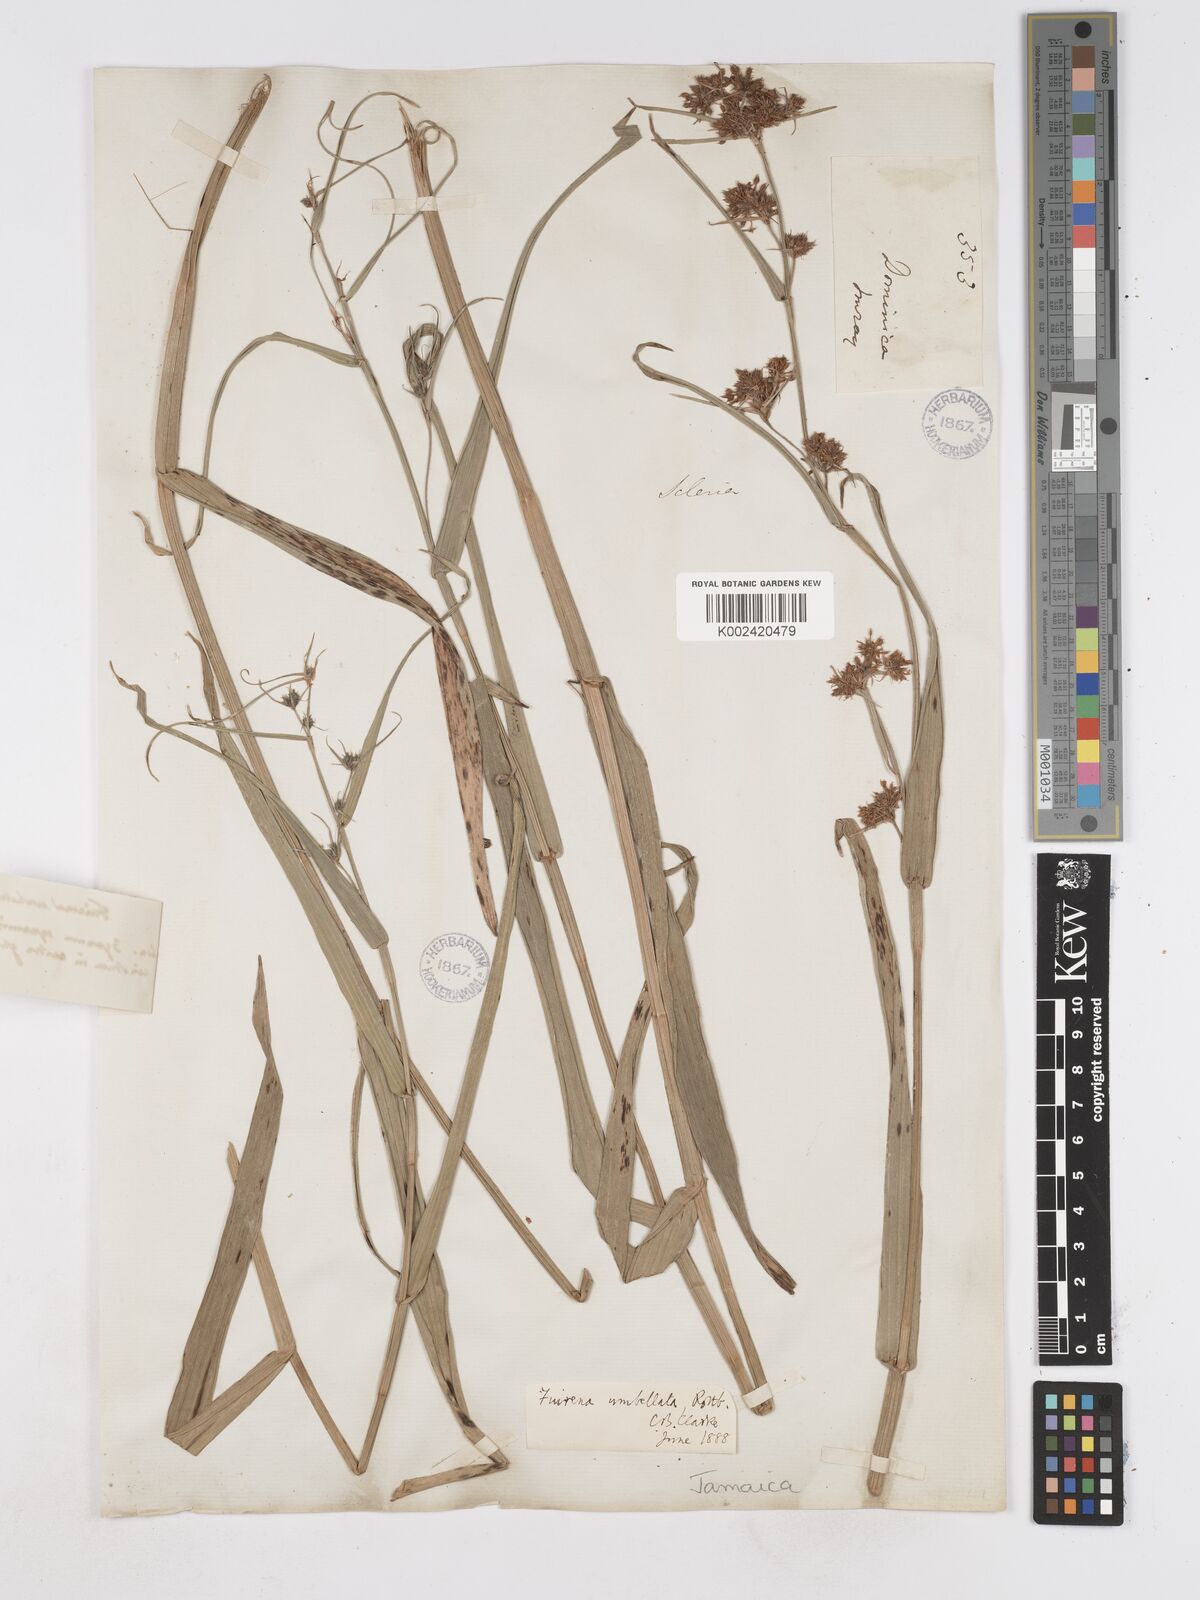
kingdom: Plantae
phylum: Tracheophyta
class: Liliopsida
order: Poales
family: Cyperaceae
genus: Fuirena
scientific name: Fuirena umbellata
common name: Yefen
